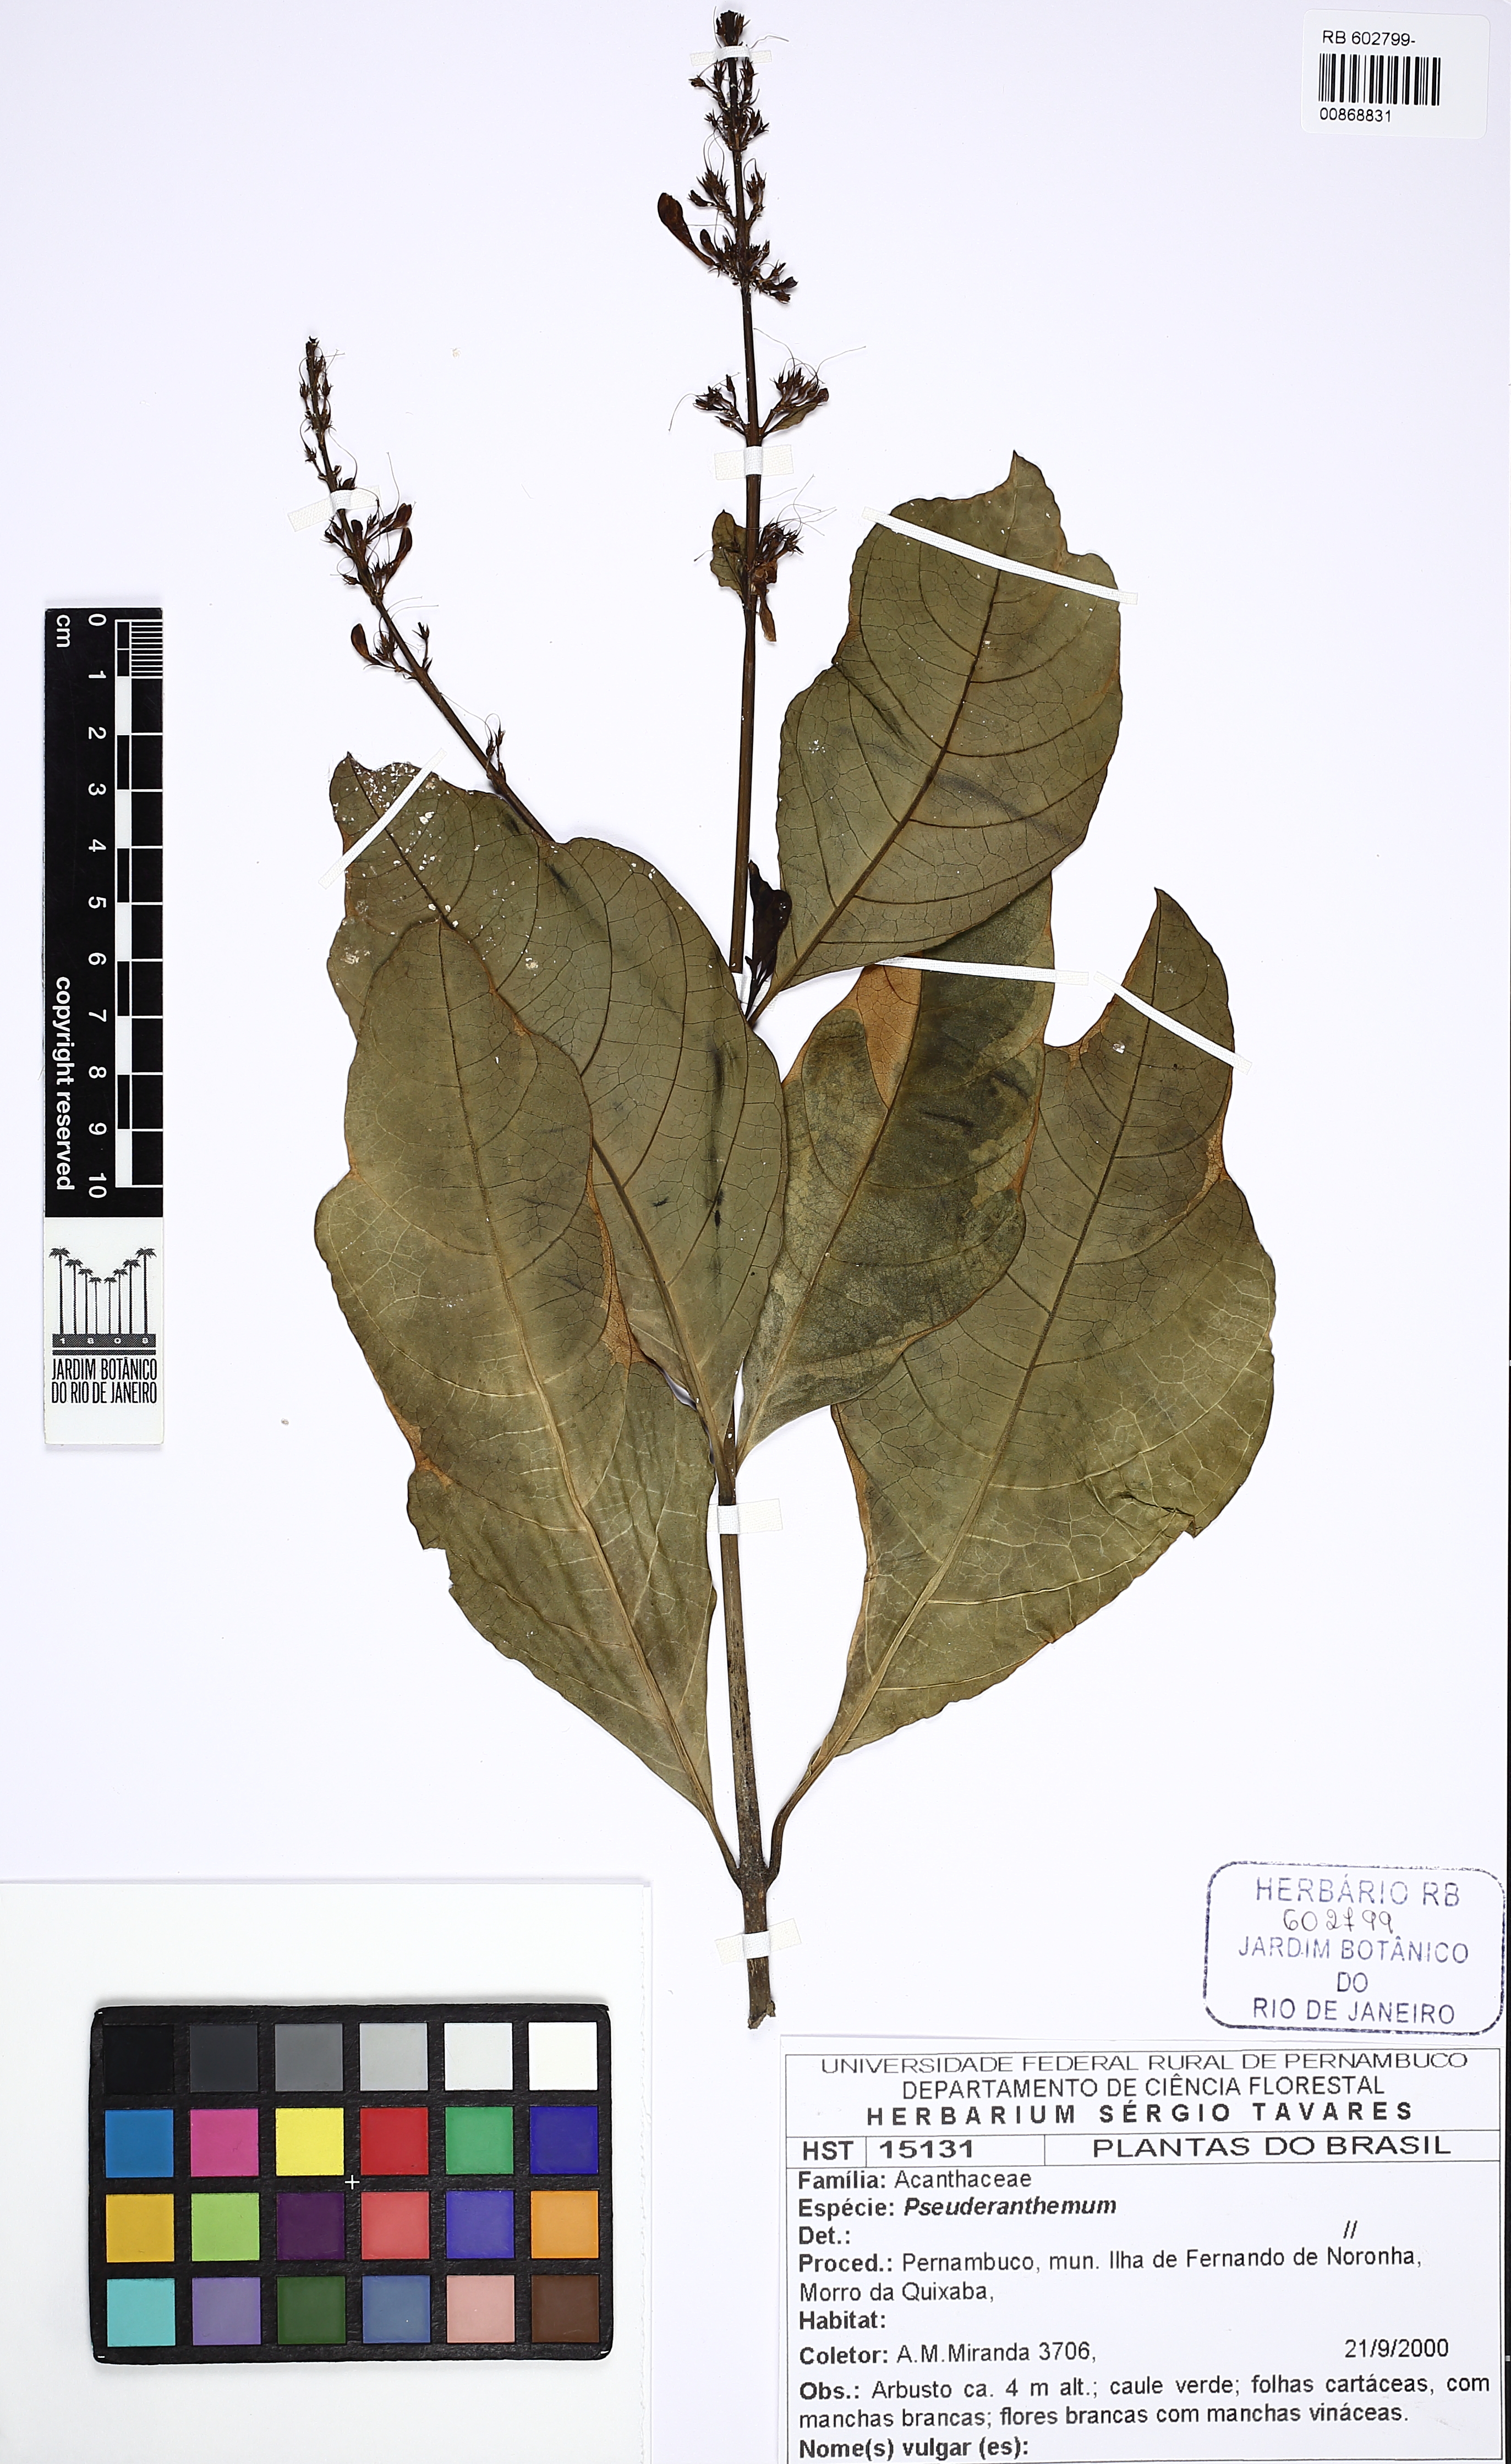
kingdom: Plantae
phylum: Tracheophyta
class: Magnoliopsida
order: Lamiales
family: Acanthaceae
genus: Pseuderanthemum
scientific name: Pseuderanthemum
